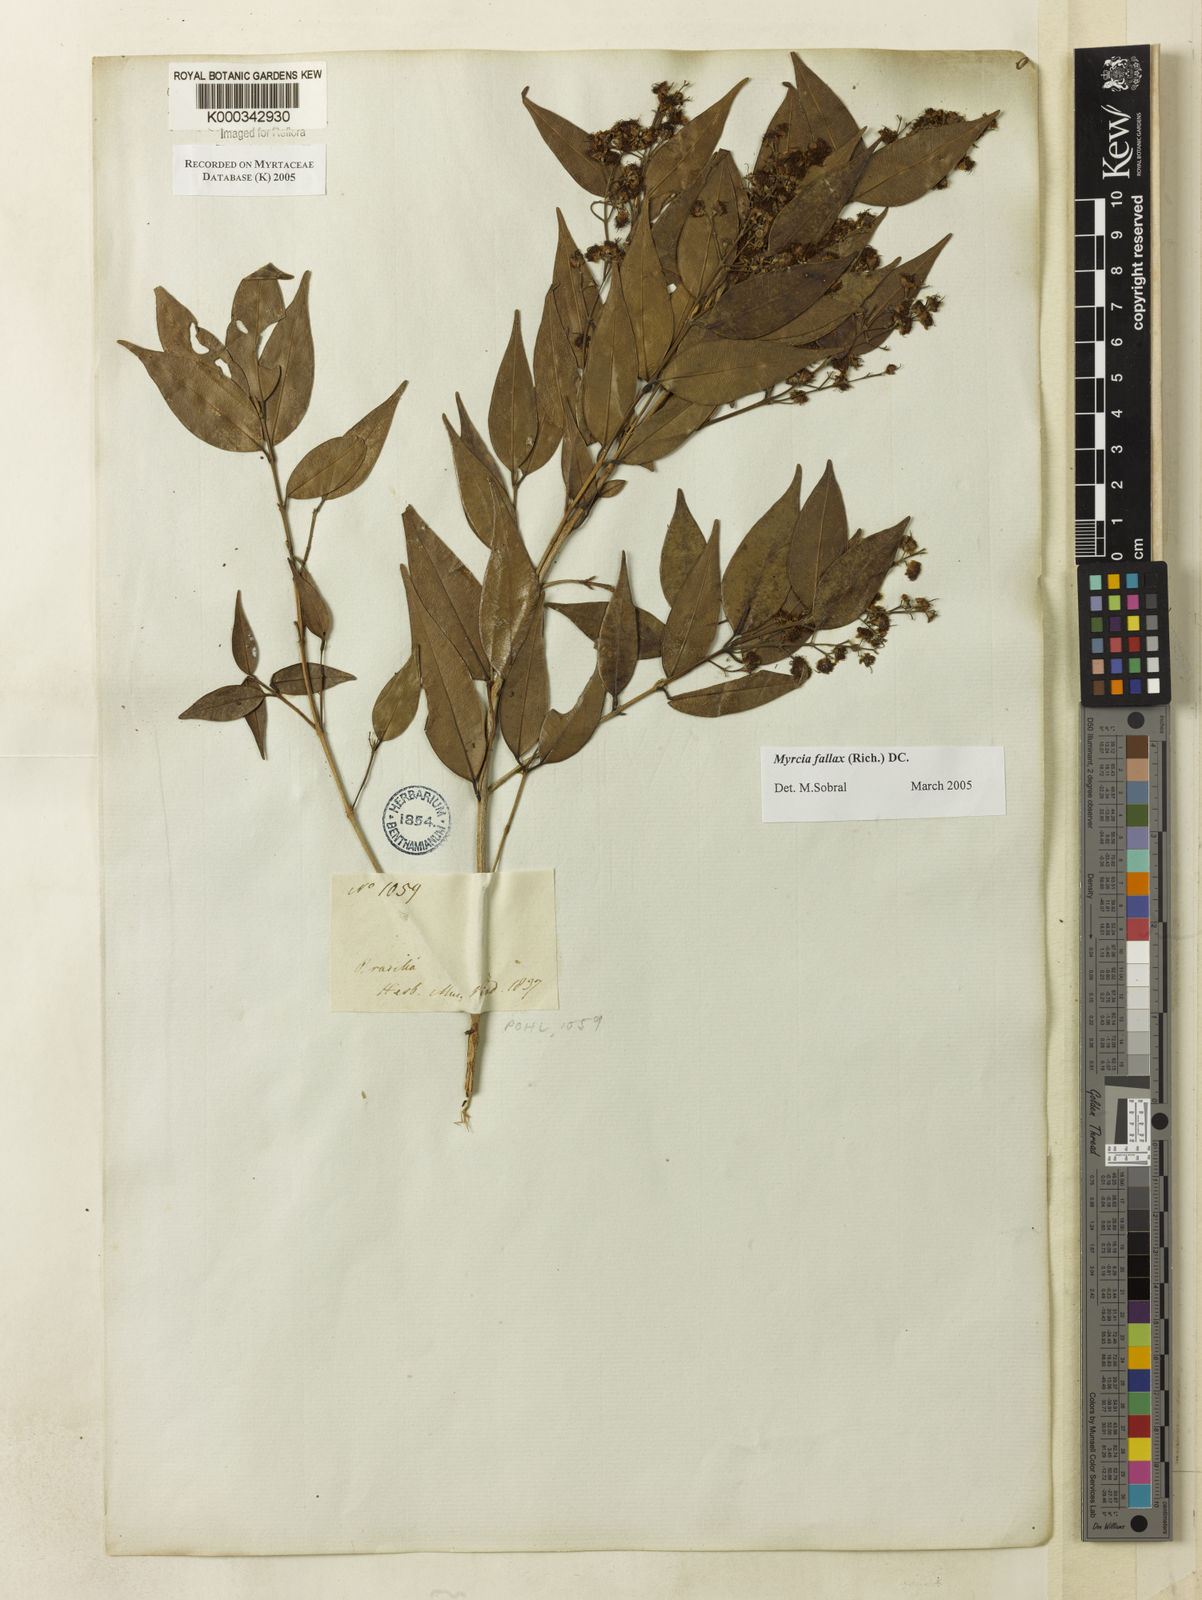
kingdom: Plantae
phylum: Tracheophyta
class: Magnoliopsida
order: Myrtales
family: Myrtaceae
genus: Myrcia
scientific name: Myrcia splendens
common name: Surinam cherry
